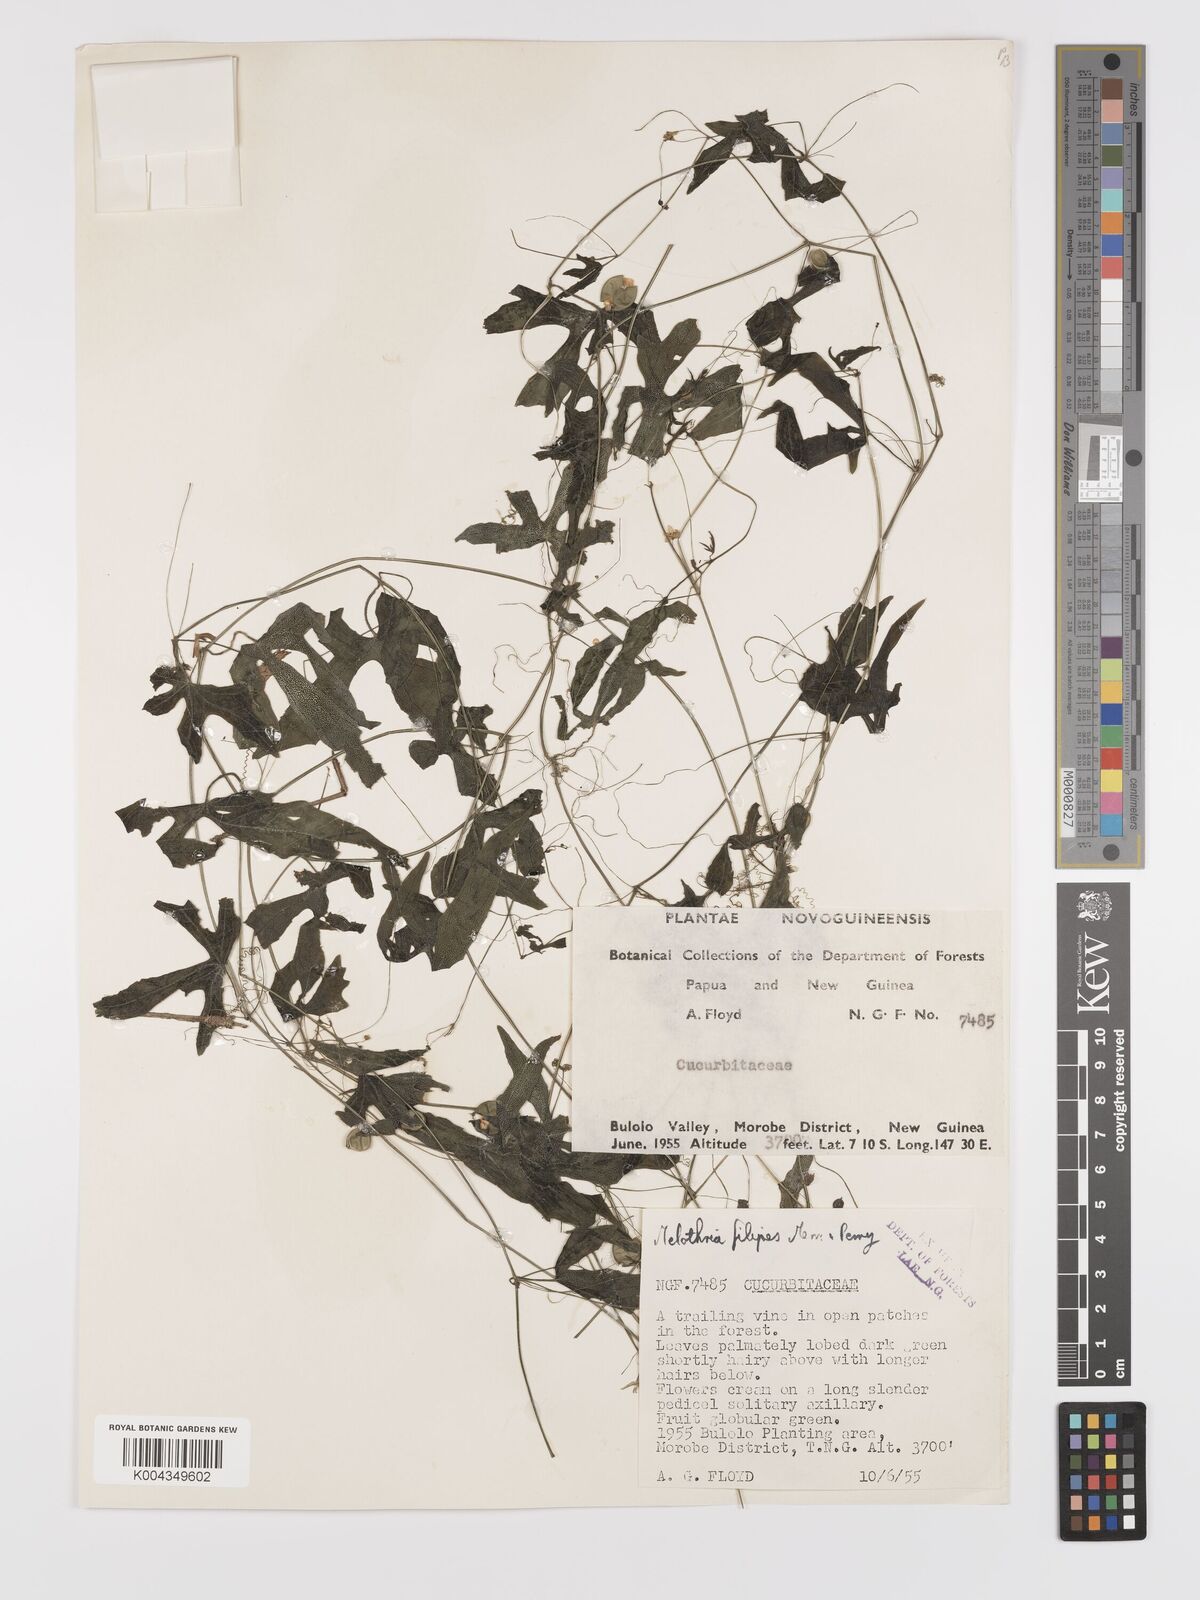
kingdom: Plantae
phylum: Tracheophyta
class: Magnoliopsida
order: Cucurbitales
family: Cucurbitaceae
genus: Zehneria
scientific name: Zehneria filipes
